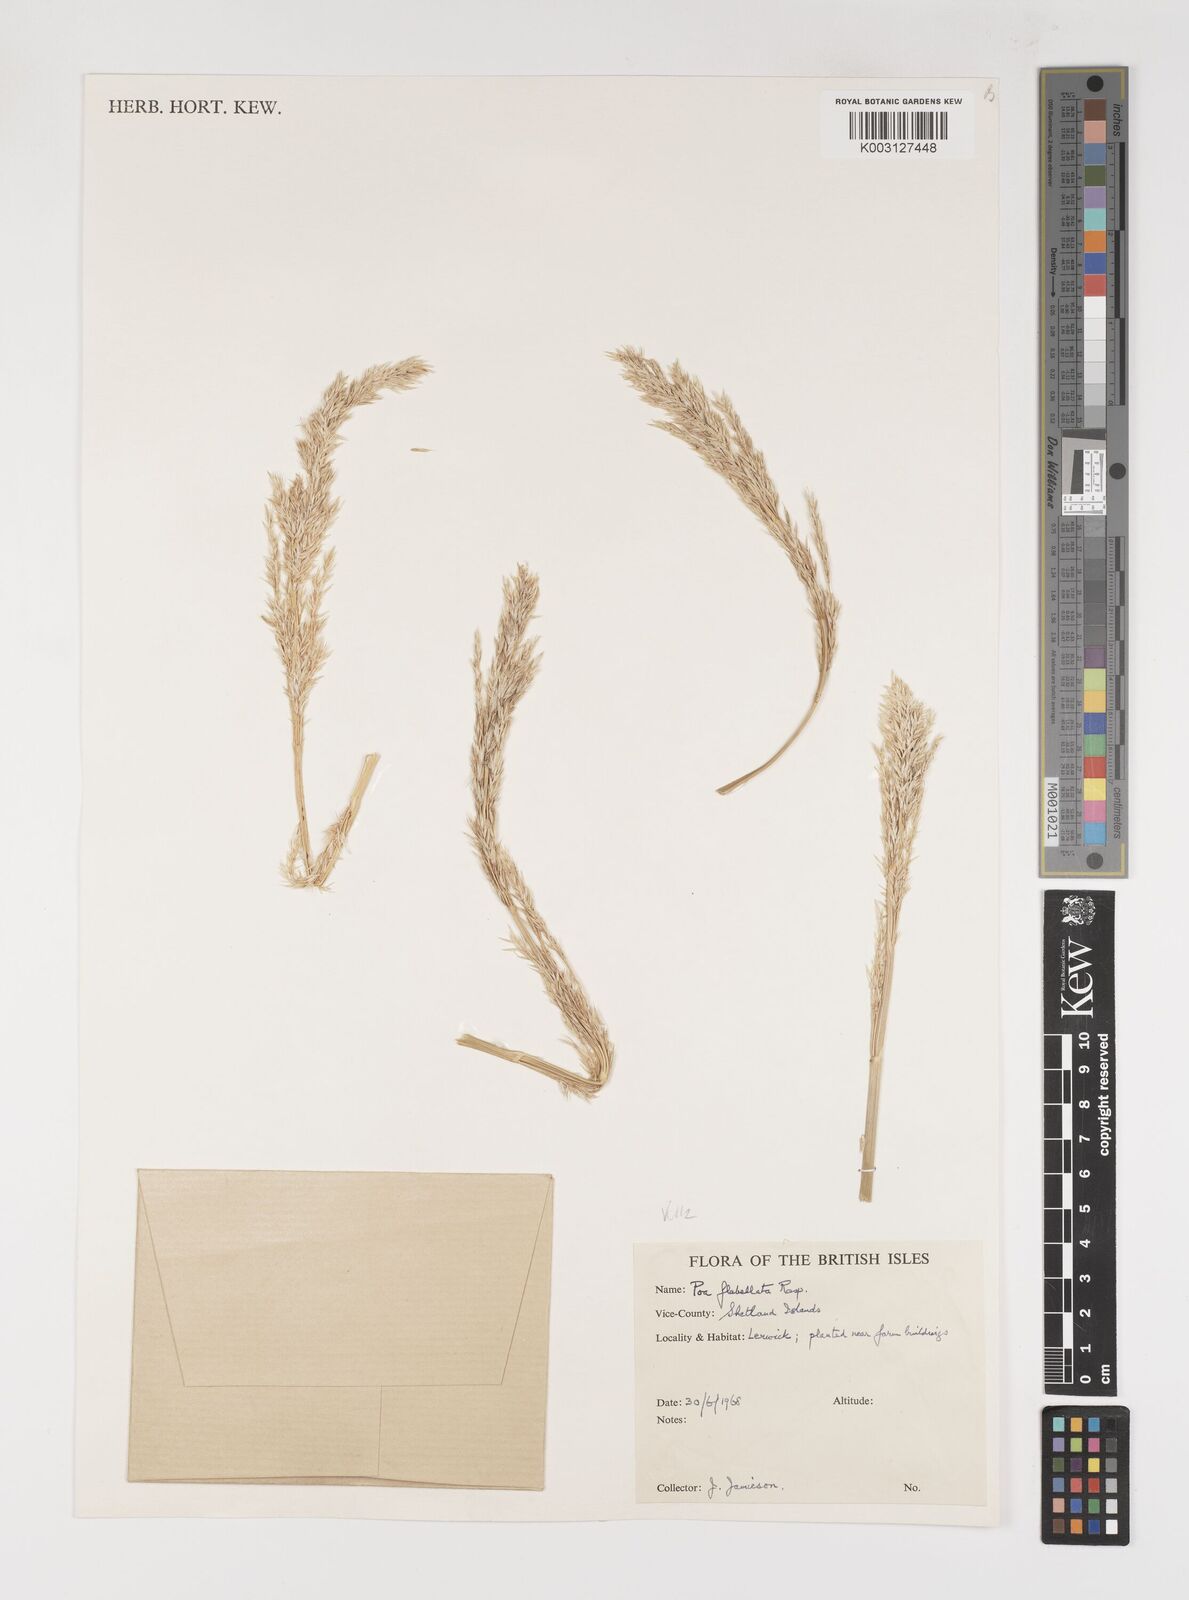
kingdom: Plantae
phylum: Tracheophyta
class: Liliopsida
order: Poales
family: Poaceae
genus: Poa
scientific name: Poa flabellata
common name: Tussac-grass
